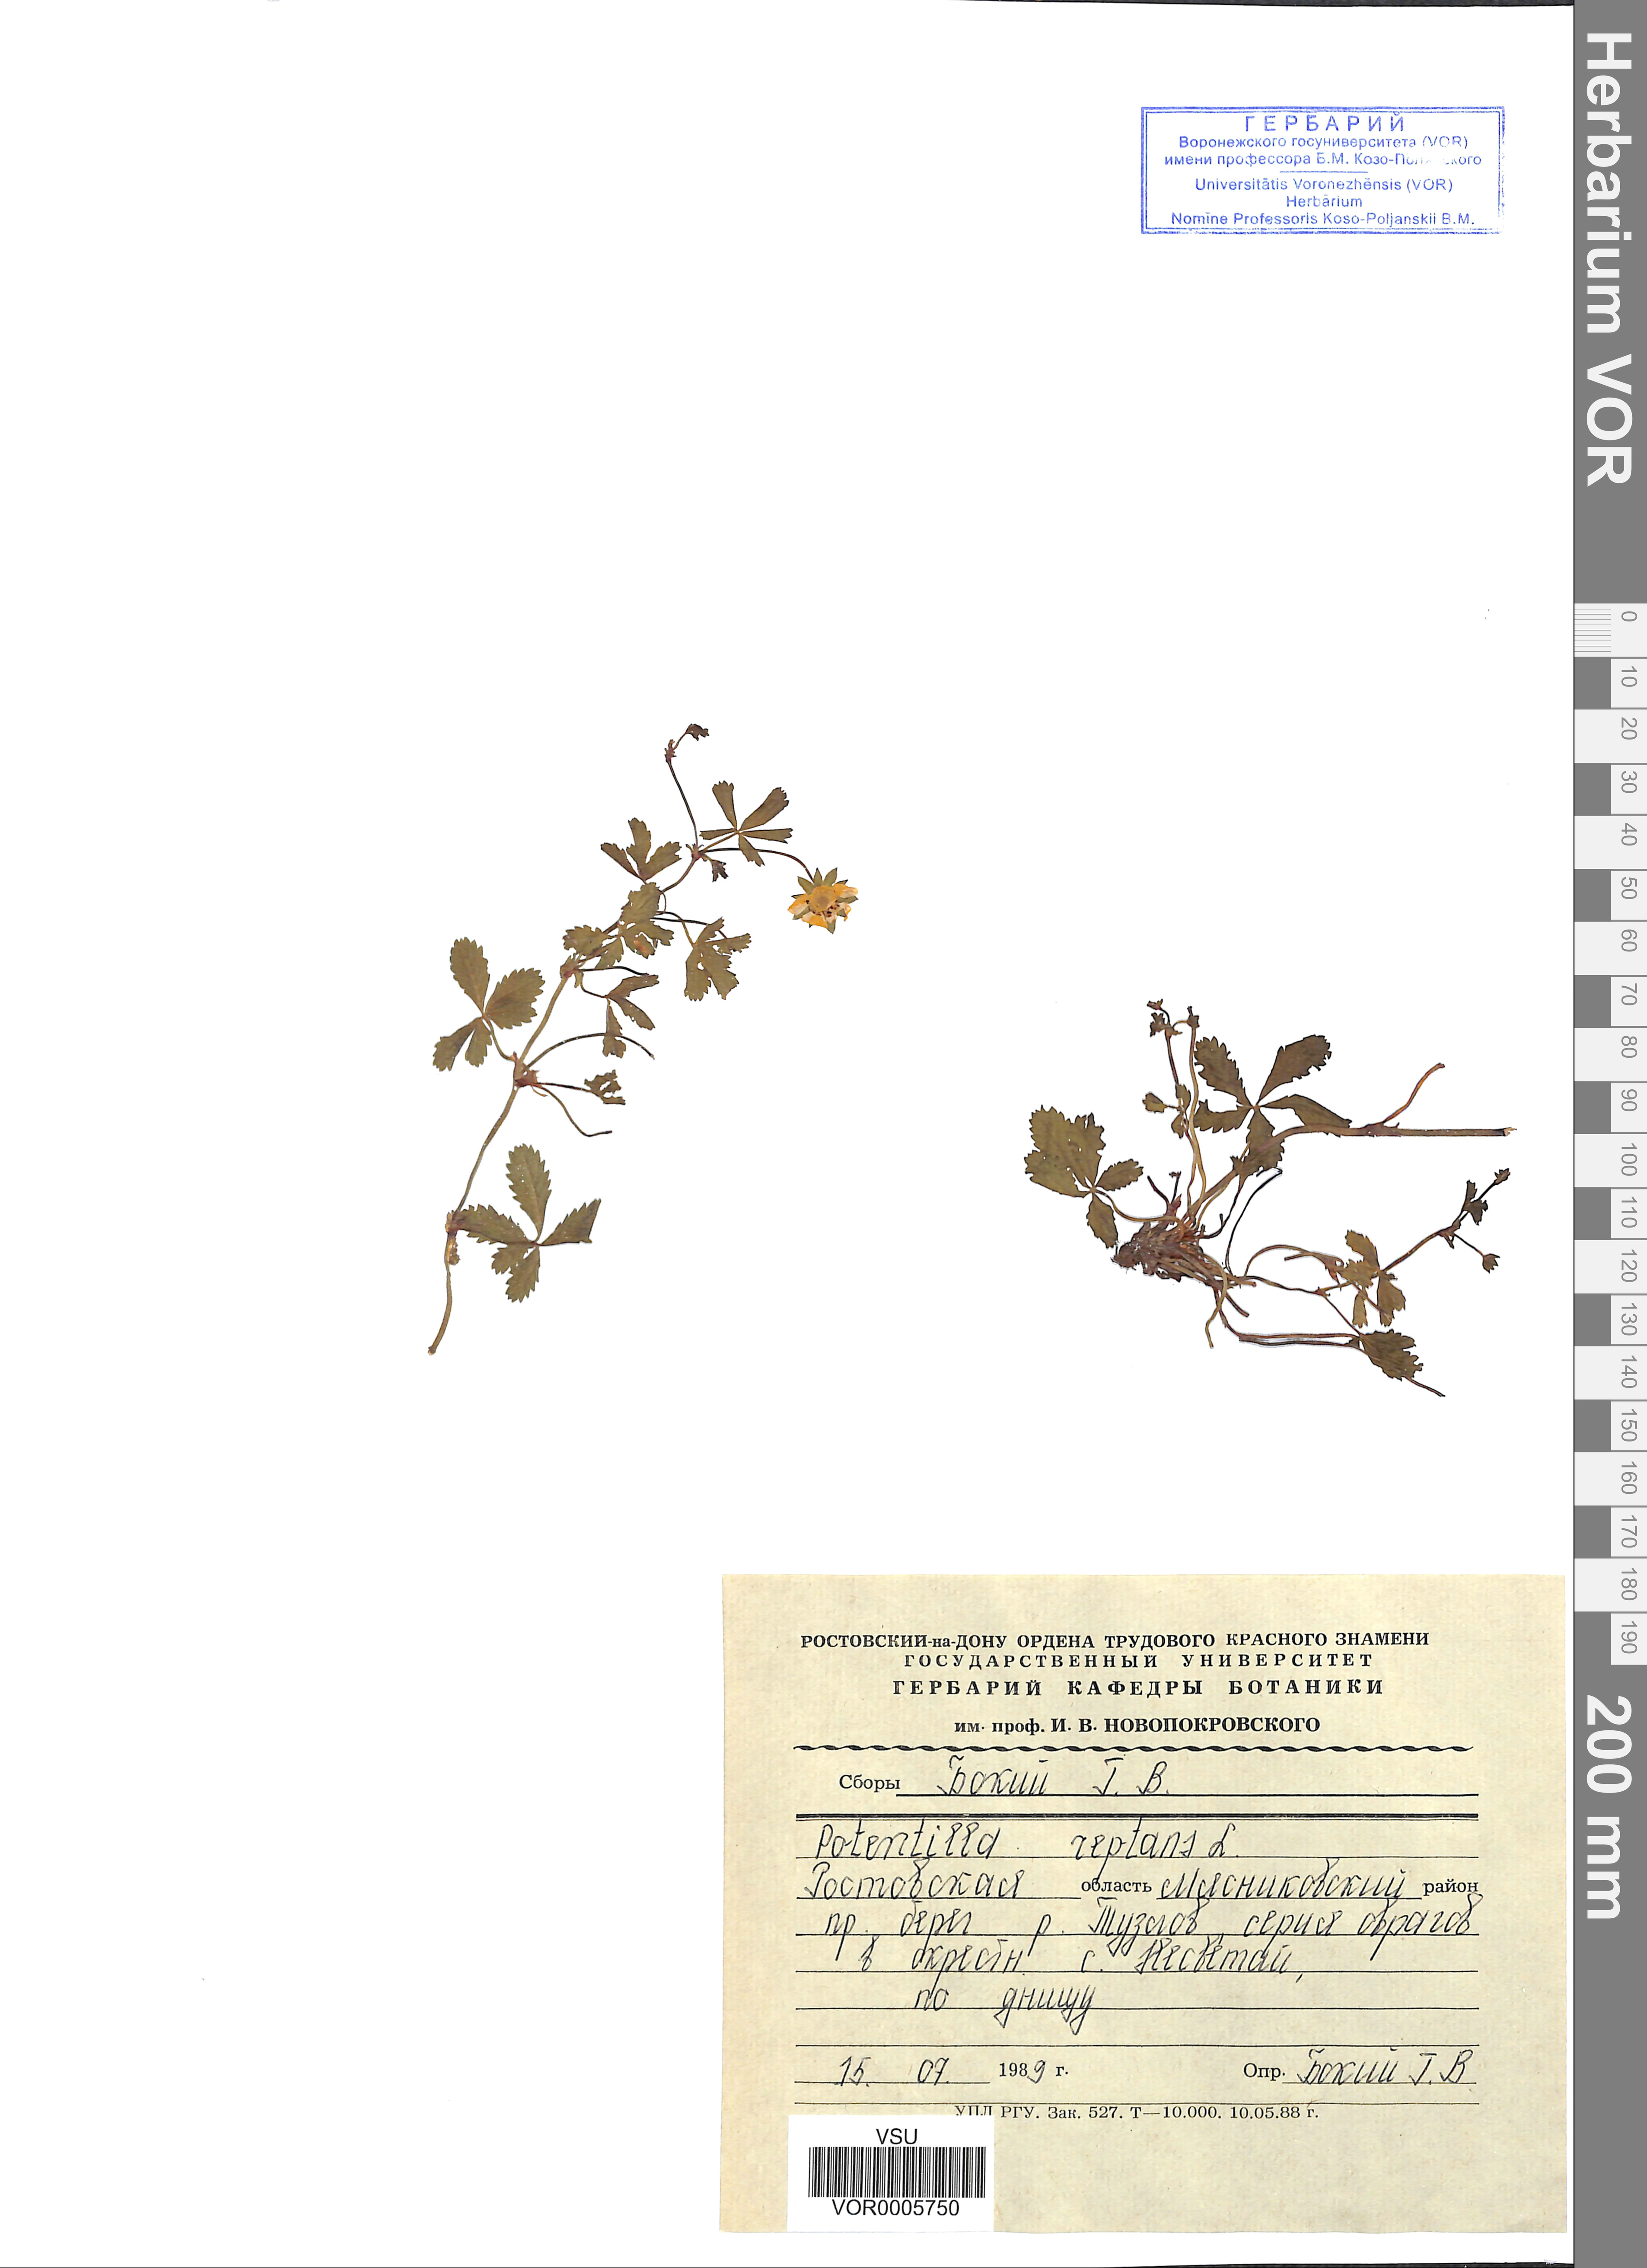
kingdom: Plantae
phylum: Tracheophyta
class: Magnoliopsida
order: Rosales
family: Rosaceae
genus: Potentilla
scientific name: Potentilla reptans
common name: Creeping cinquefoil
